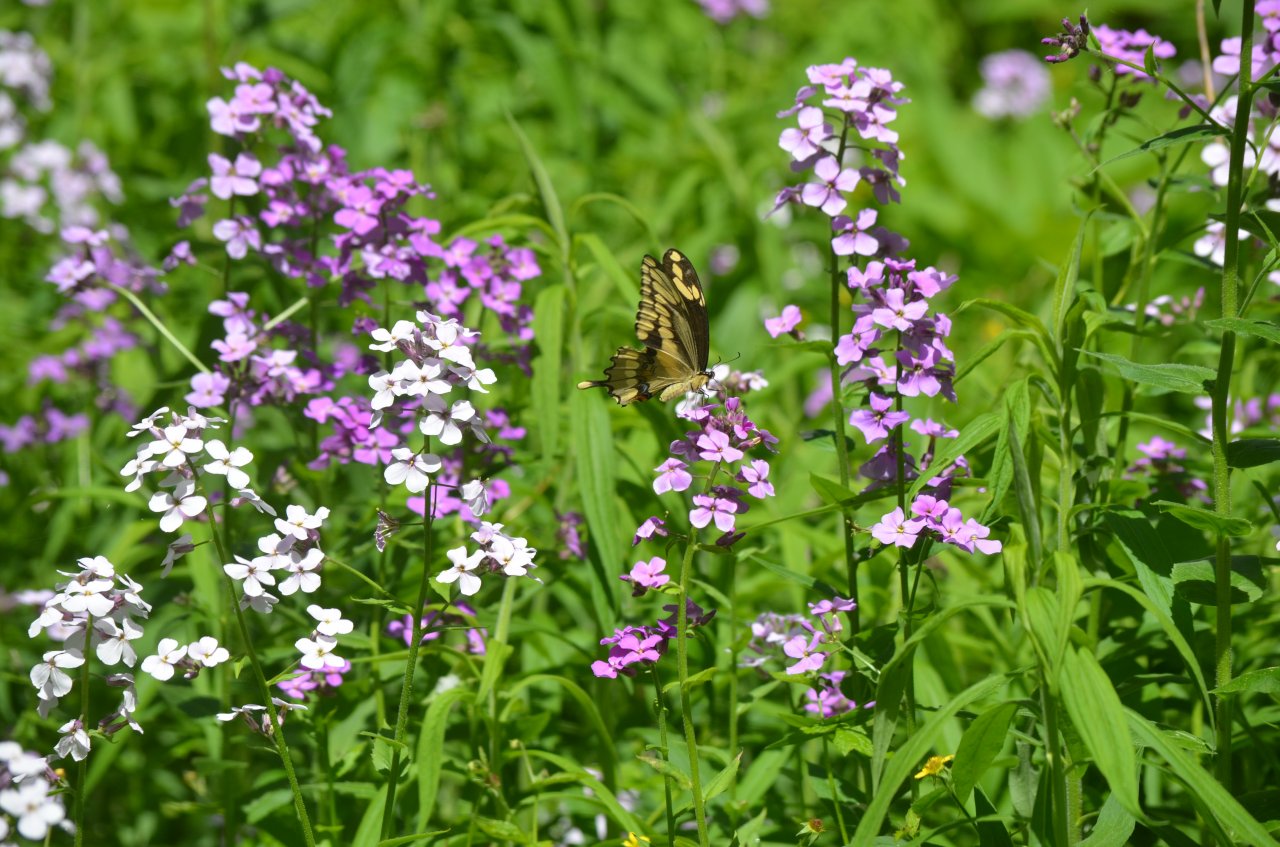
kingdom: Animalia
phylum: Arthropoda
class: Insecta
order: Lepidoptera
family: Papilionidae
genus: Papilio
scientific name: Papilio cresphontes
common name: Eastern Giant Swallowtail
